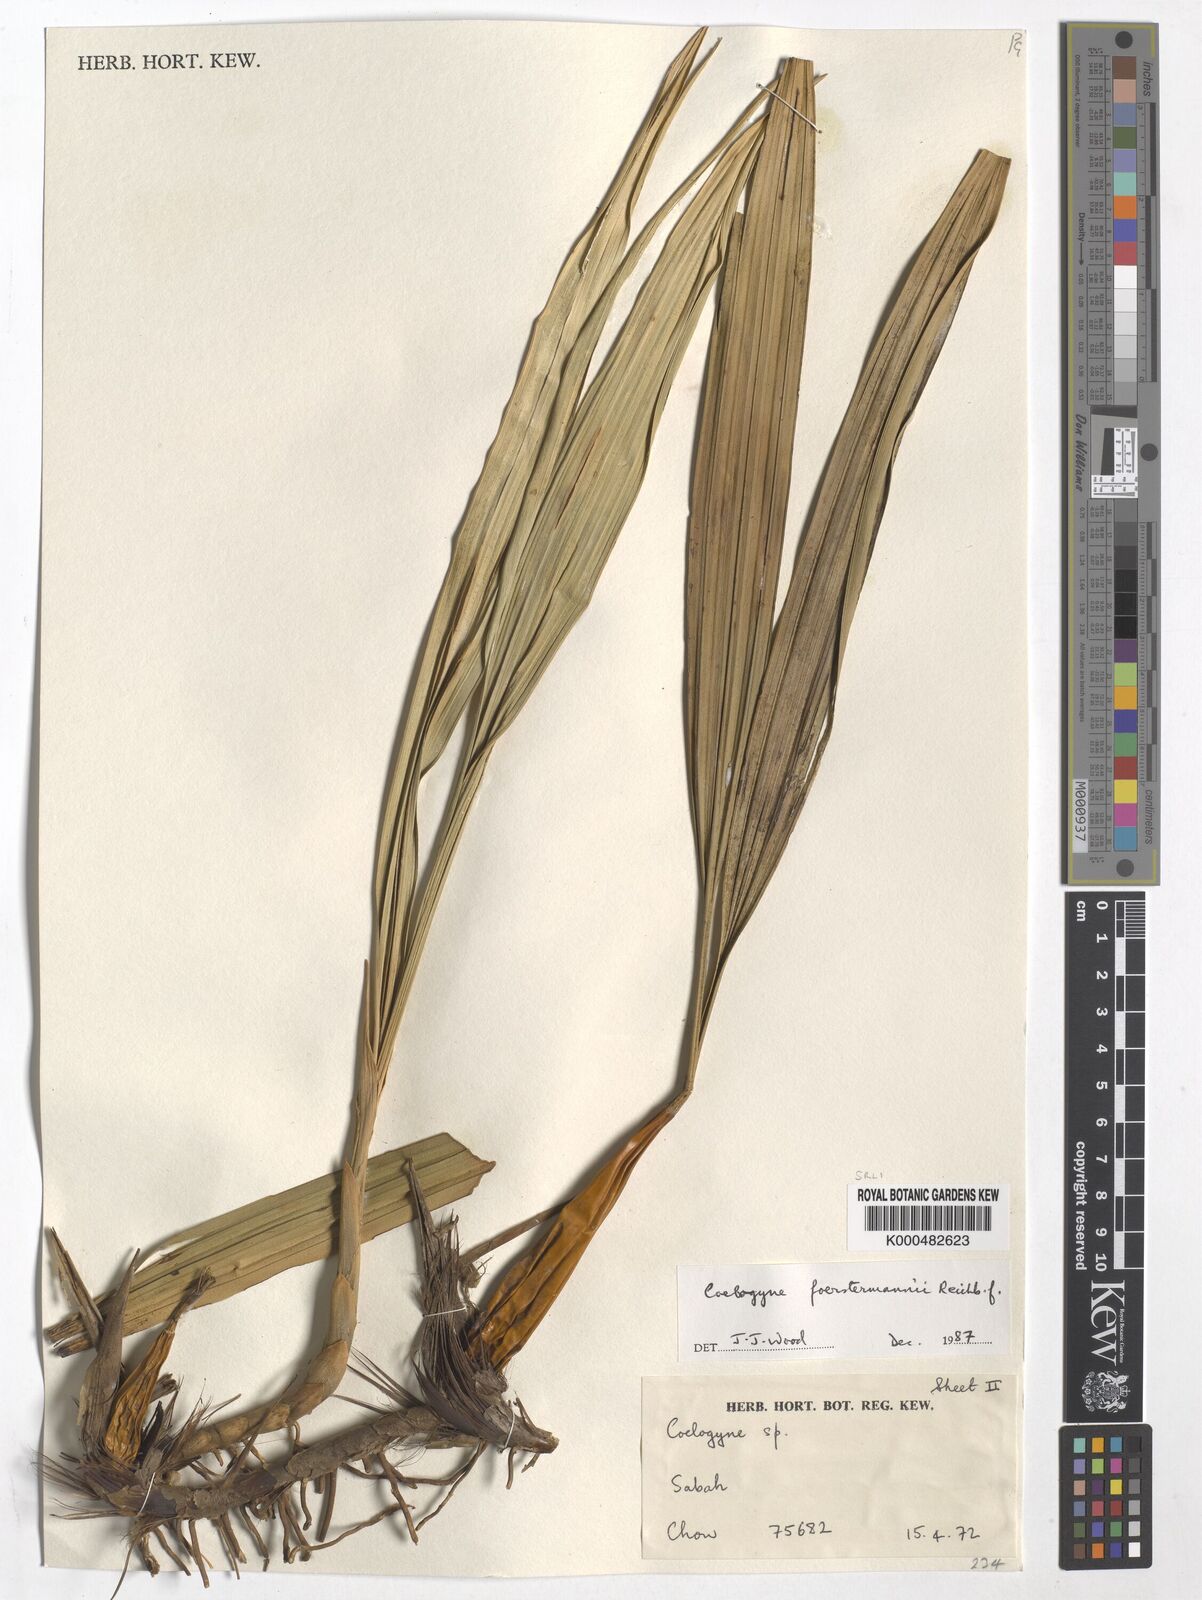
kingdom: Plantae
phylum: Tracheophyta
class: Liliopsida
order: Asparagales
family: Orchidaceae
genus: Coelogyne
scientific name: Coelogyne
